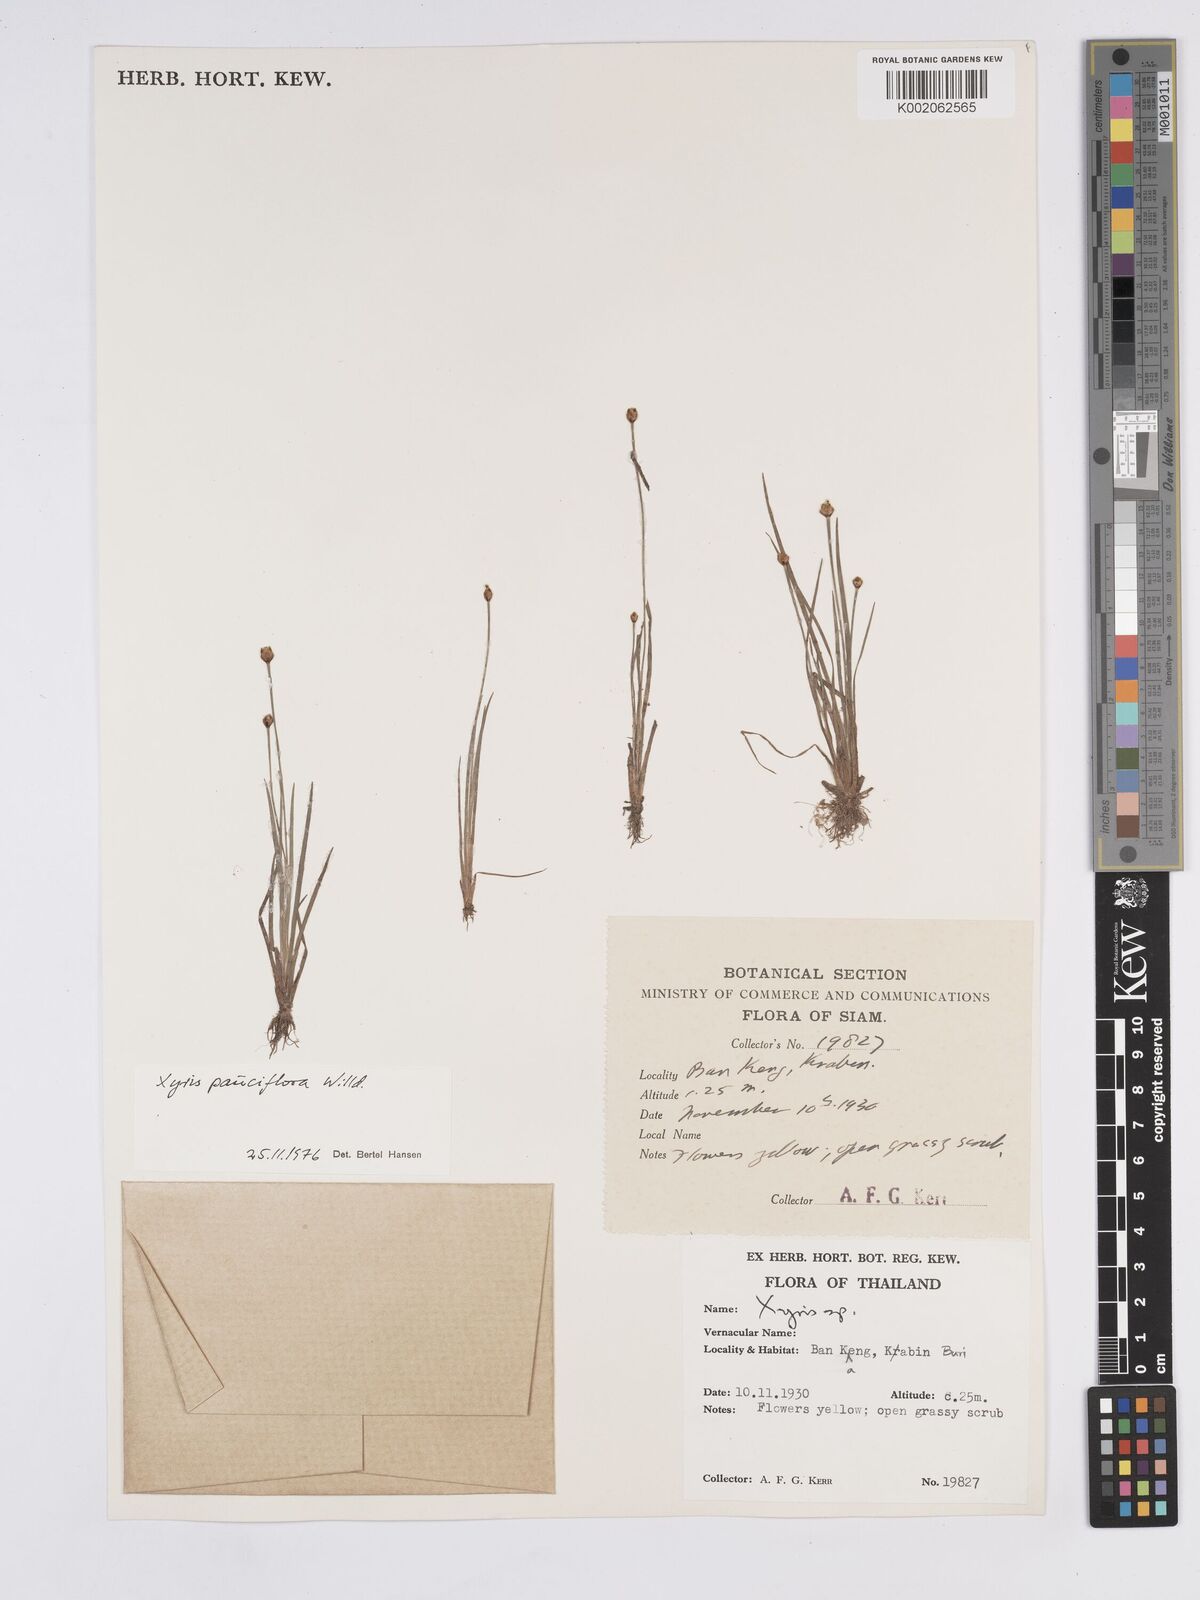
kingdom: Plantae
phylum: Tracheophyta
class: Liliopsida
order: Poales
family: Xyridaceae
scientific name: Xyridaceae
